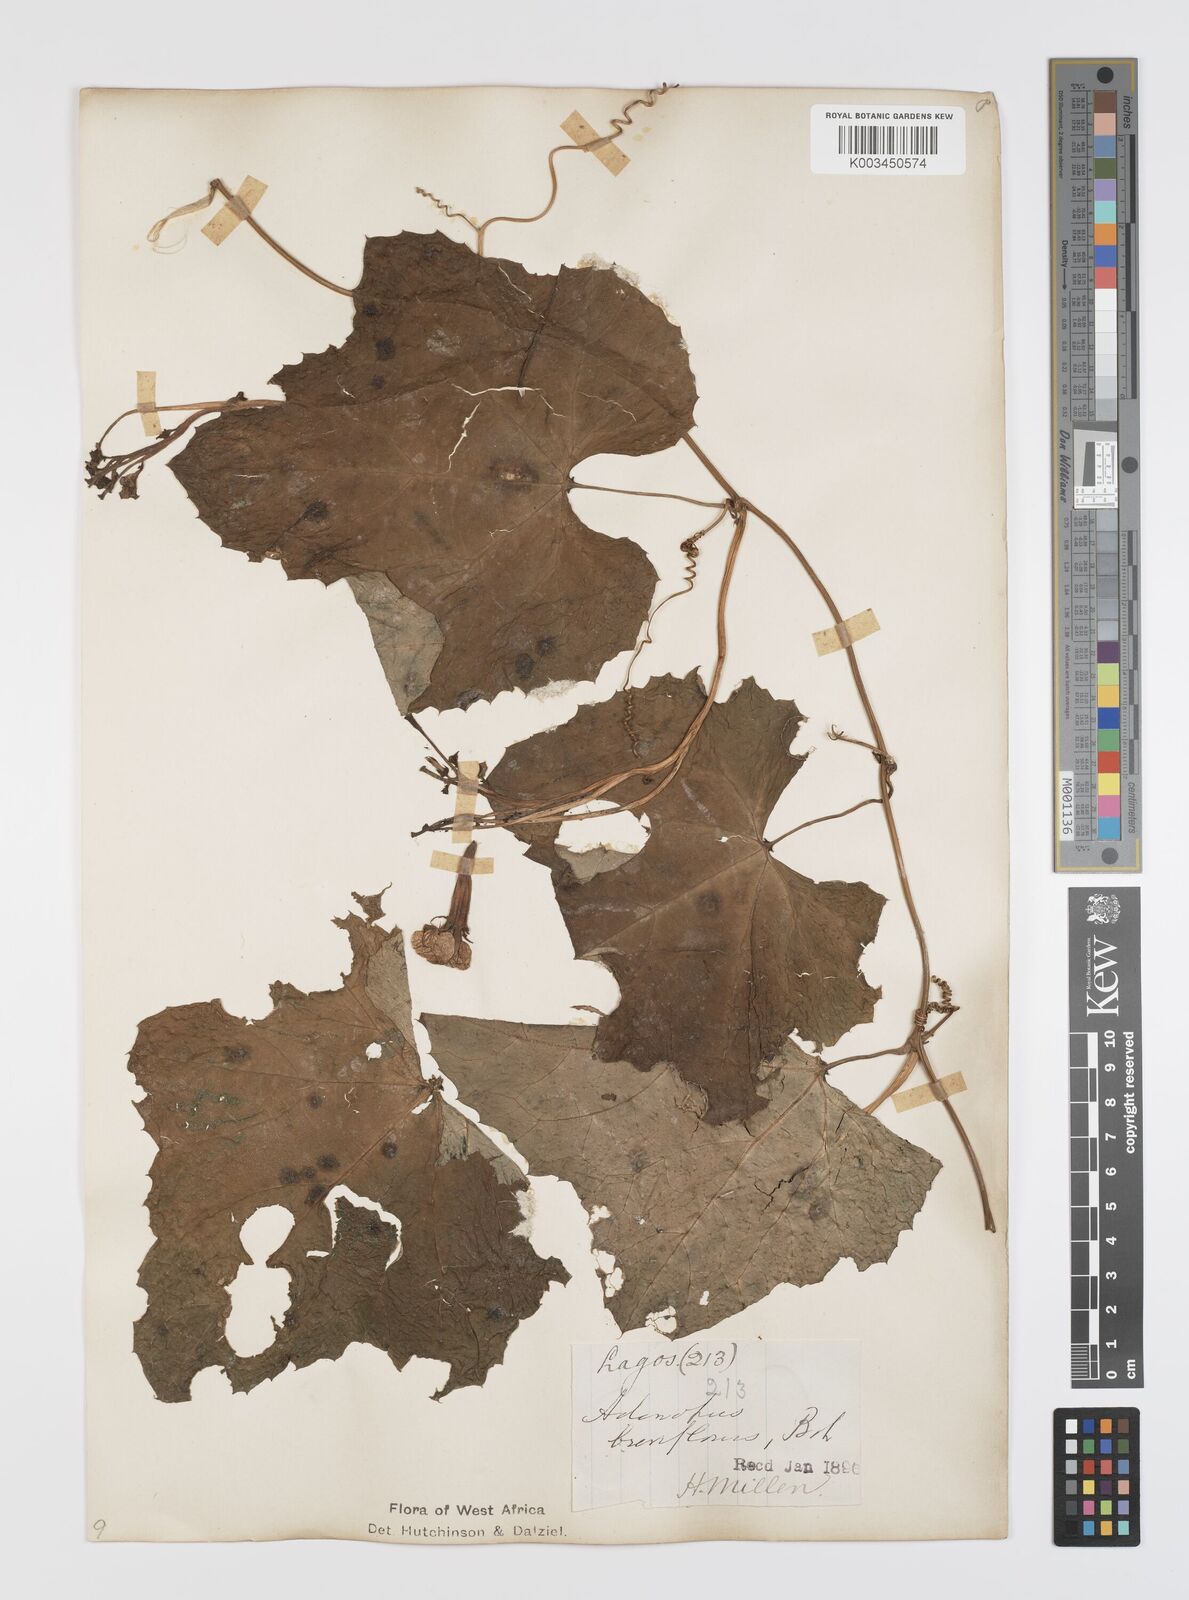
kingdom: Plantae
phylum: Tracheophyta
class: Magnoliopsida
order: Cucurbitales
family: Cucurbitaceae
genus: Lagenaria
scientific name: Lagenaria breviflora
